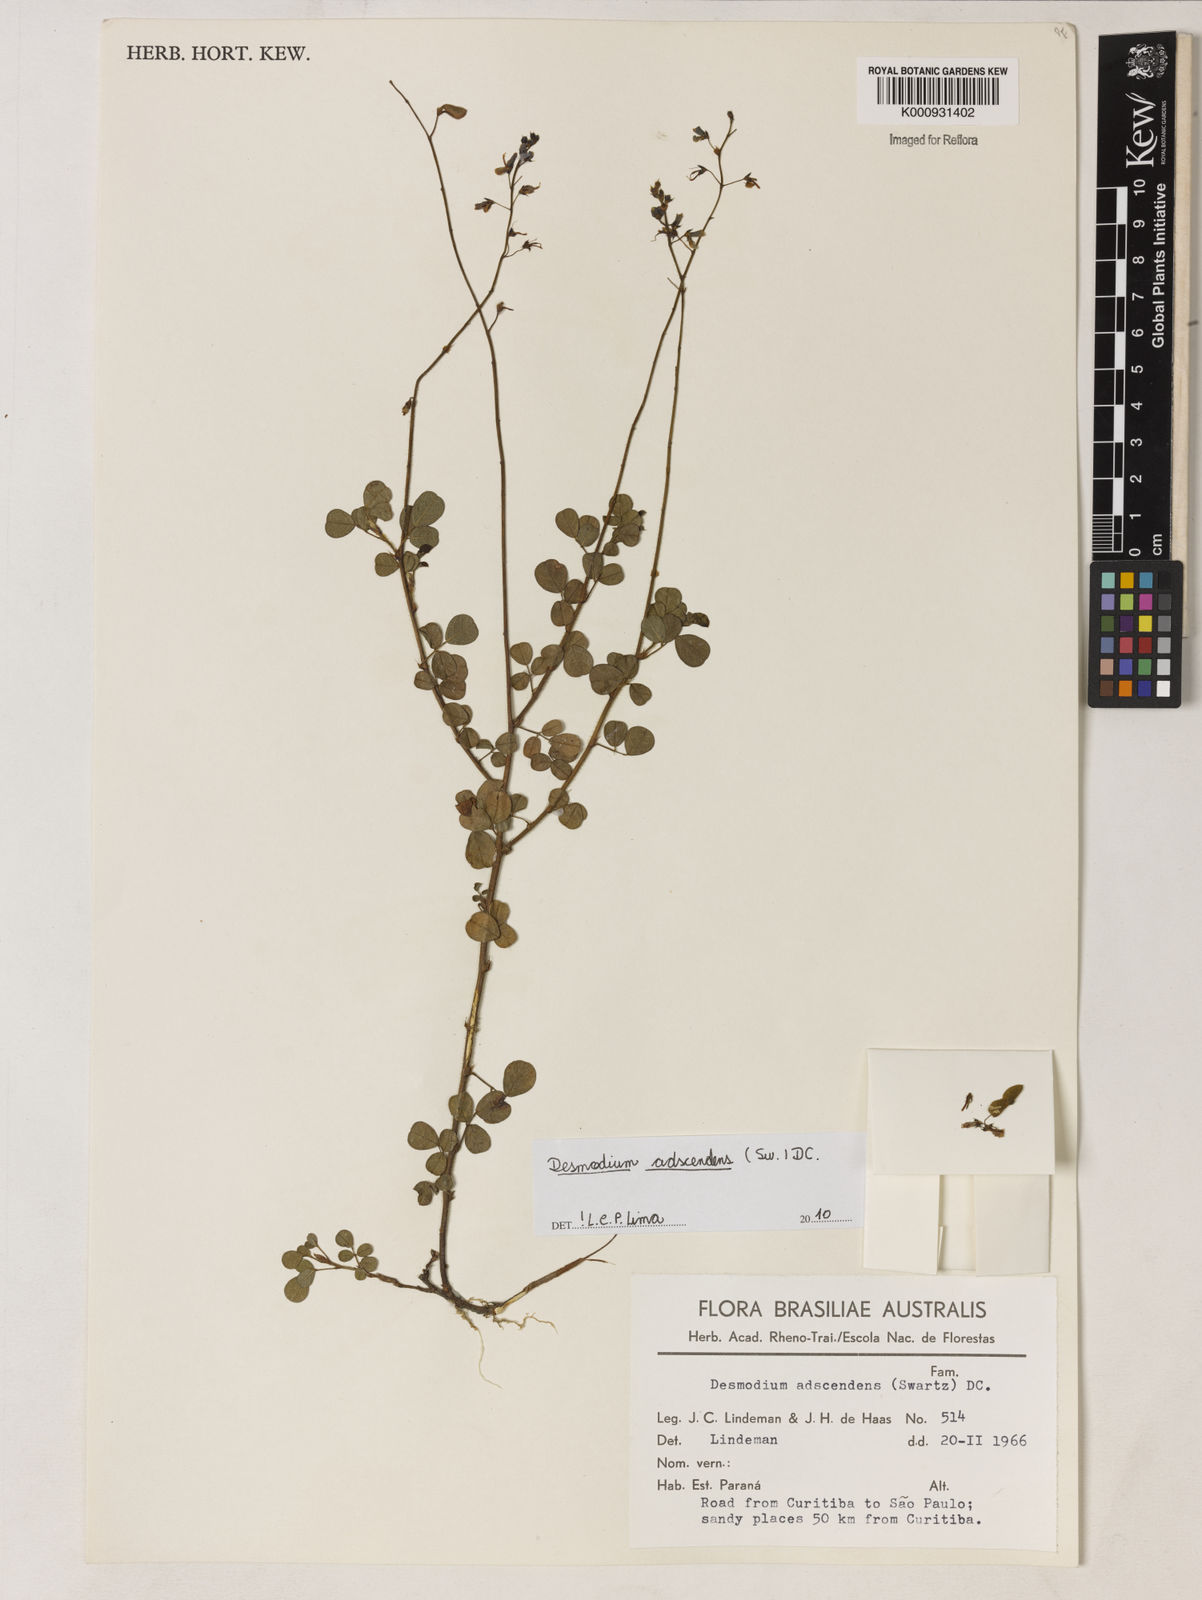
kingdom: Plantae
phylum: Tracheophyta
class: Magnoliopsida
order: Fabales
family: Fabaceae
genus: Grona
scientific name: Grona adscendens
